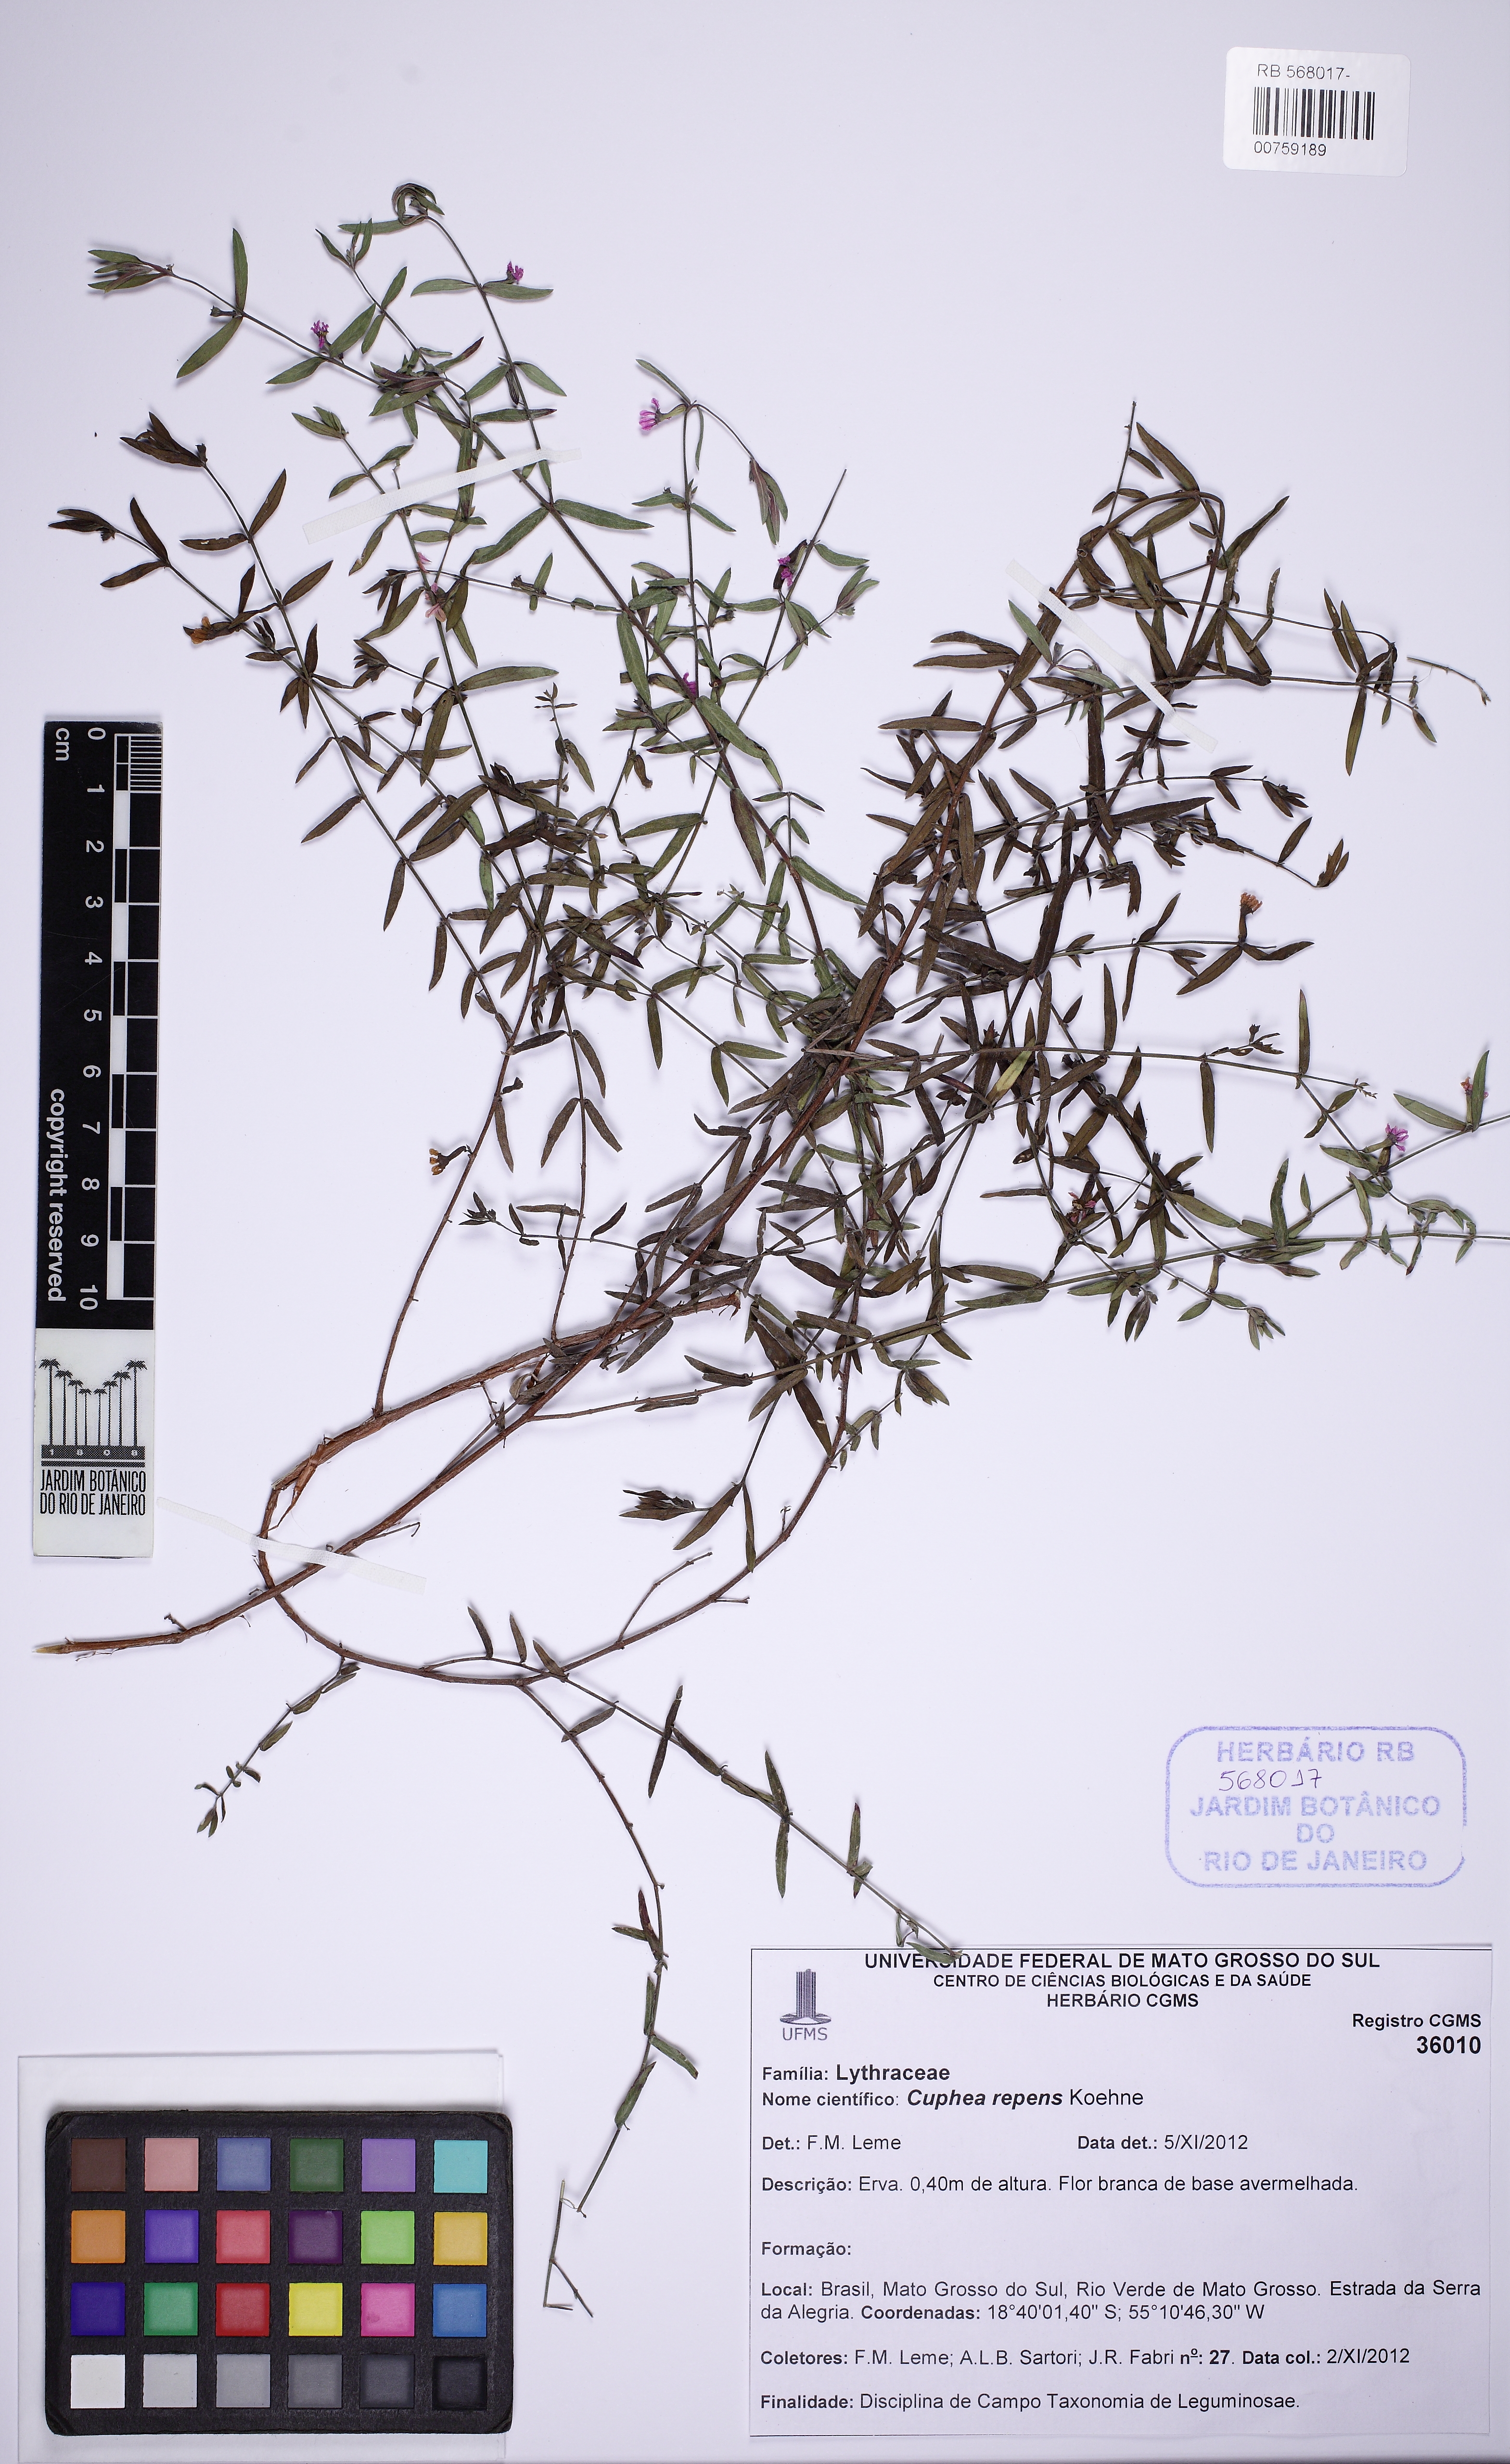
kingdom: Plantae
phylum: Tracheophyta
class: Magnoliopsida
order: Myrtales
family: Lythraceae
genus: Cuphea
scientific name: Cuphea repens
